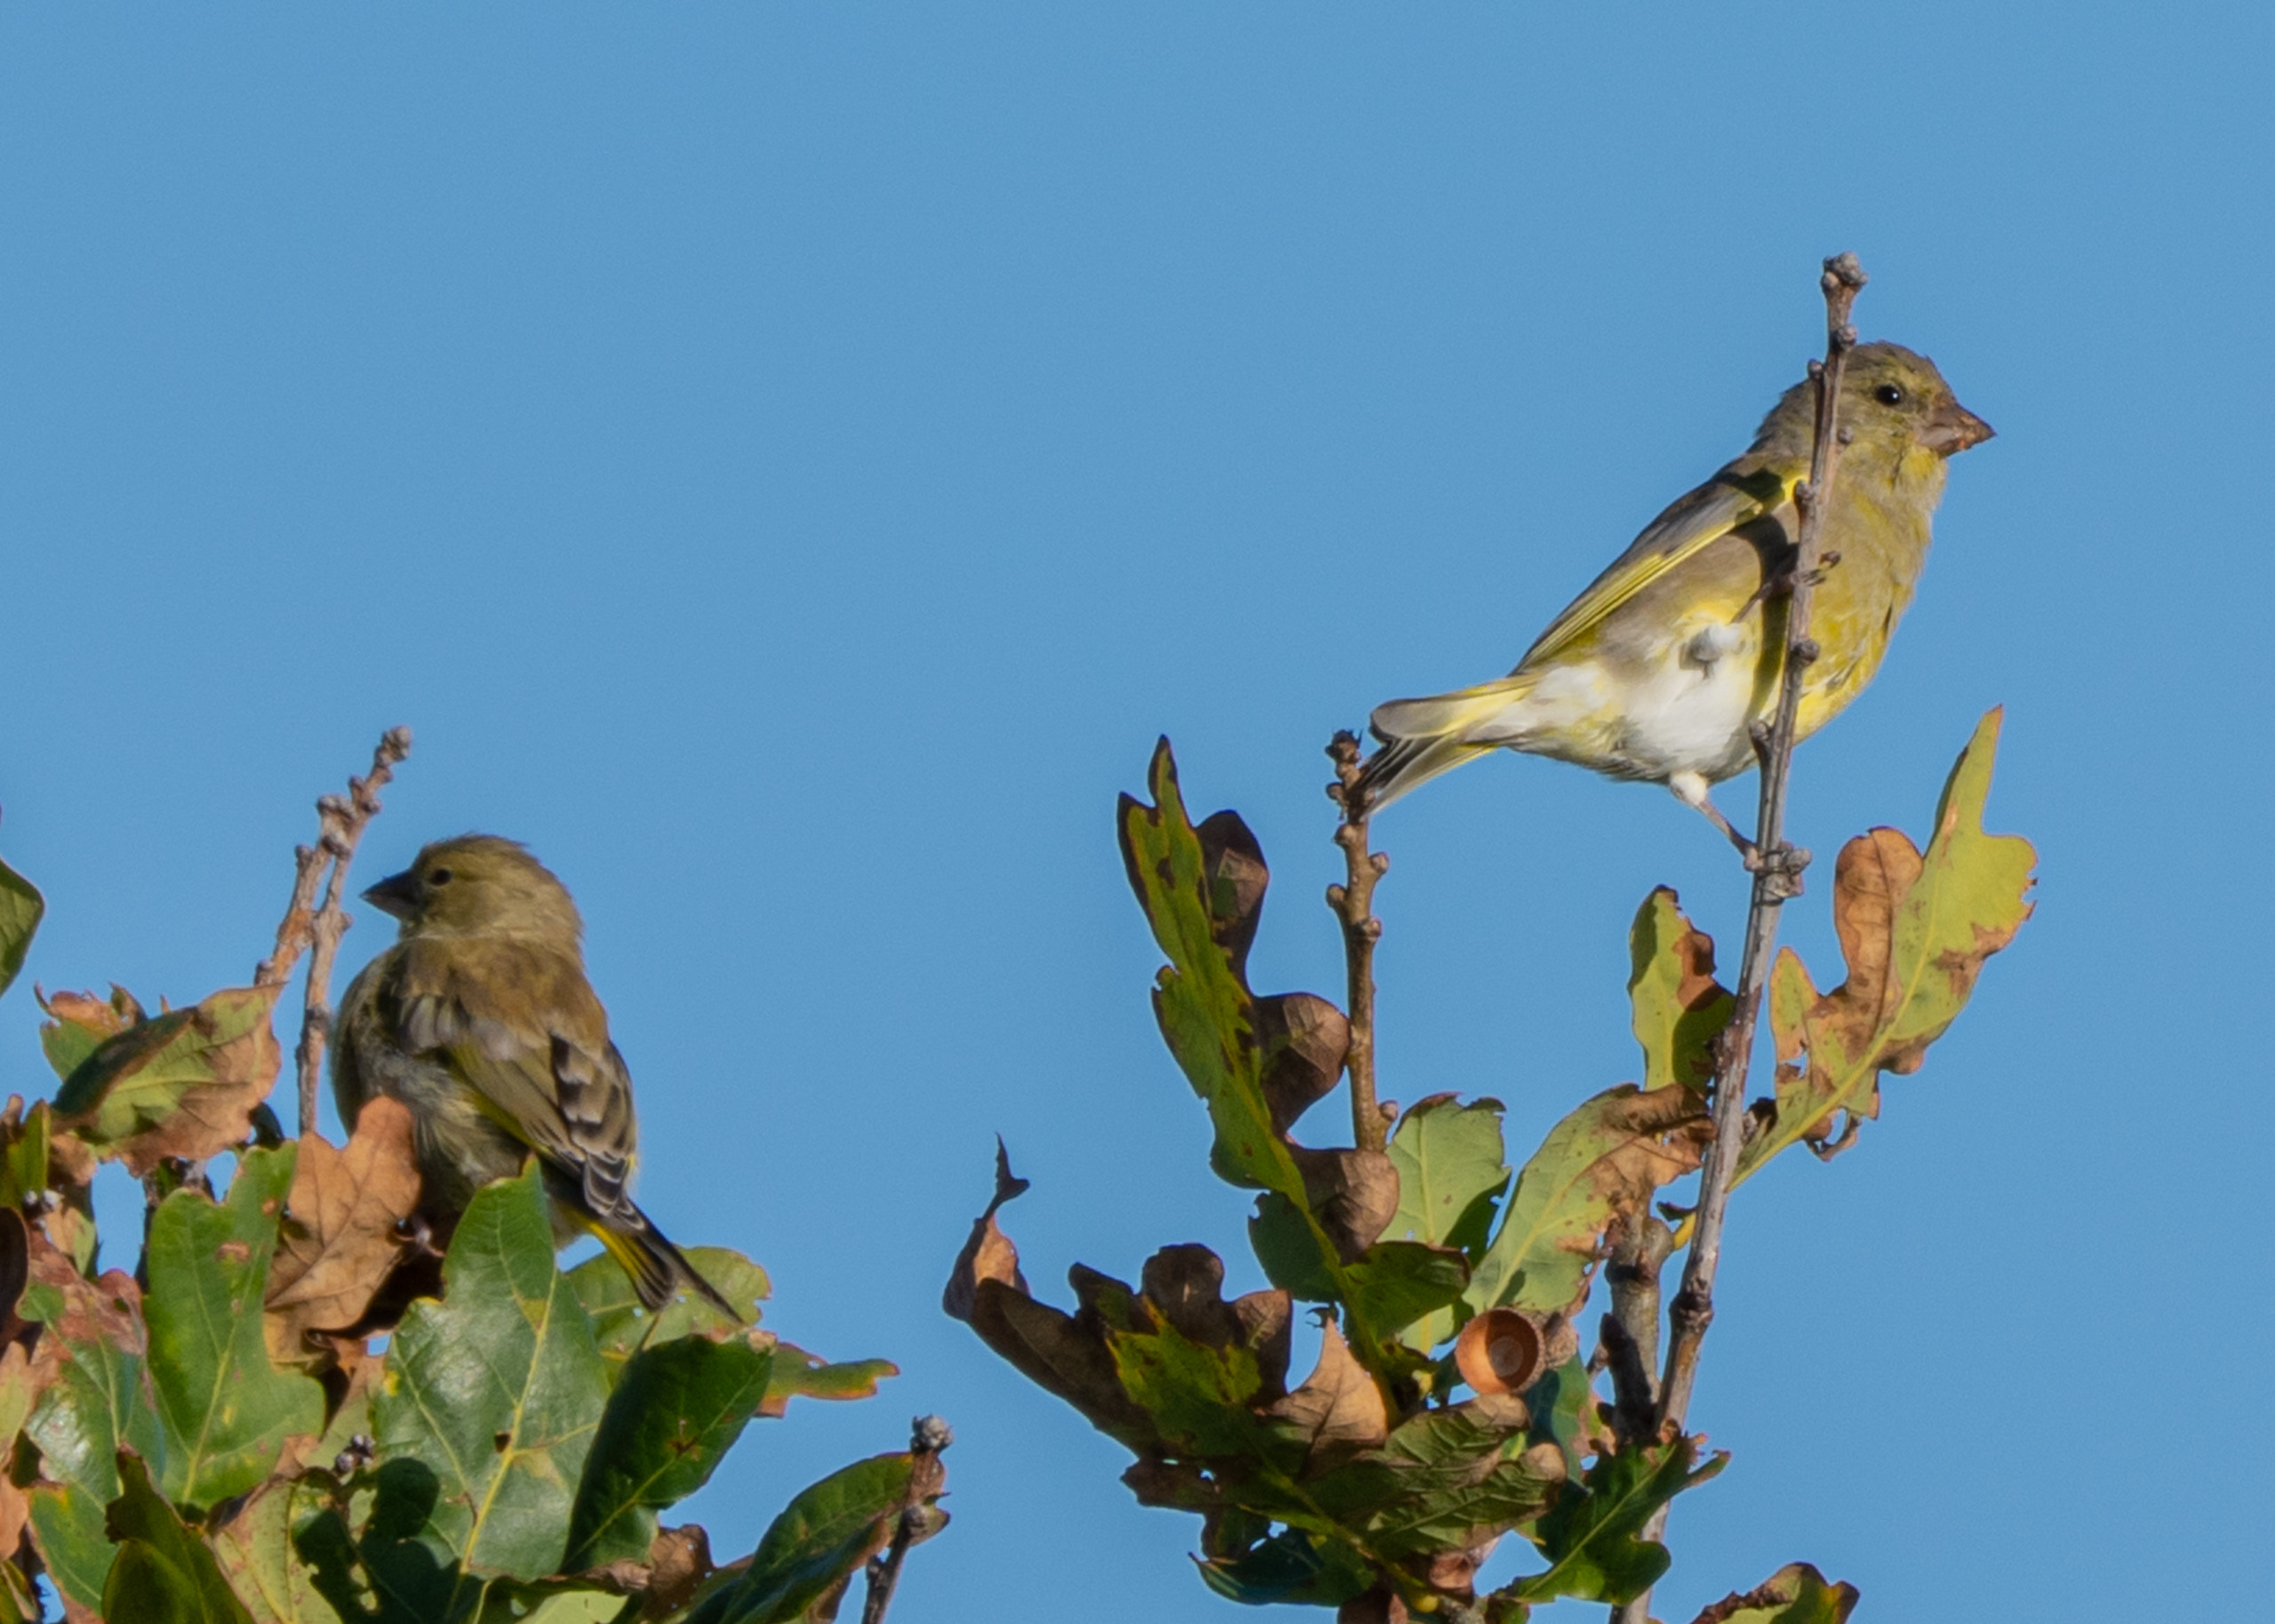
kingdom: Plantae
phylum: Tracheophyta
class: Liliopsida
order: Poales
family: Poaceae
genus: Chloris
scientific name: Chloris chloris
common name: Grønirisk
